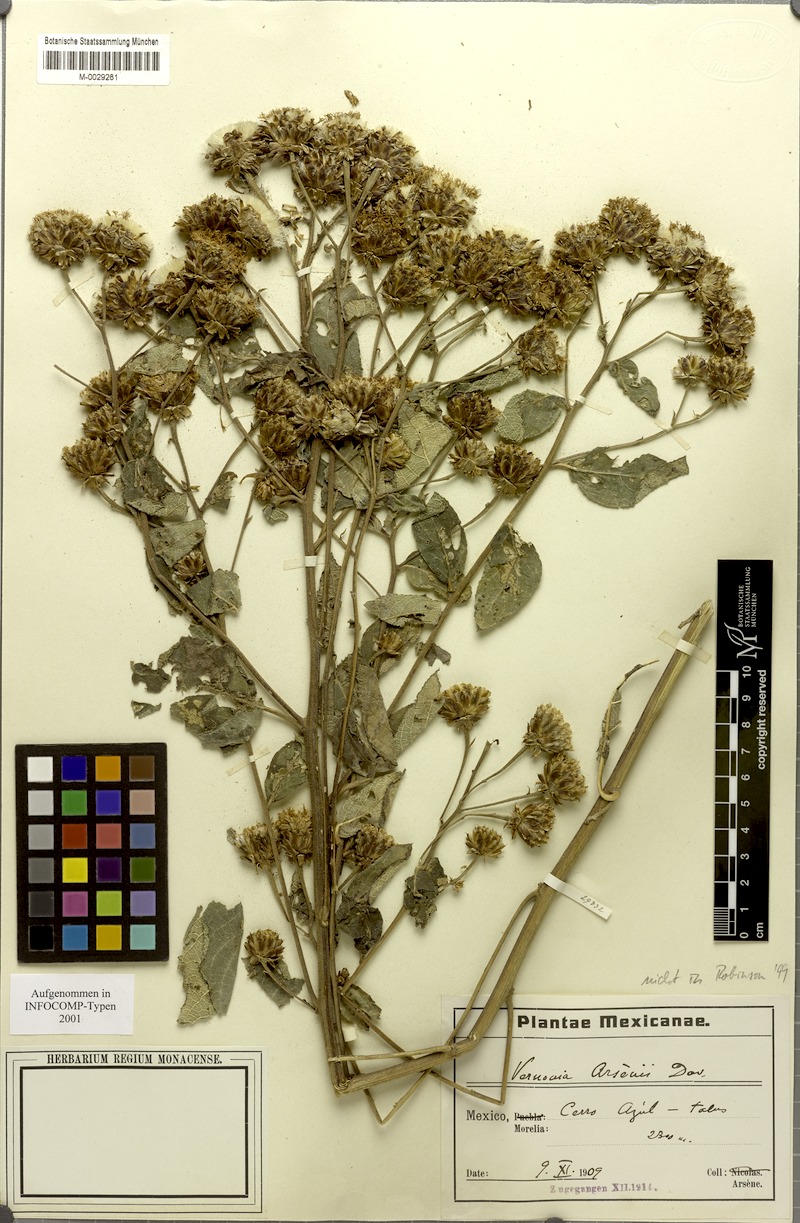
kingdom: Plantae
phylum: Tracheophyta
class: Magnoliopsida
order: Asterales
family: Asteraceae
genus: Vernonia
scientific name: Vernonia
